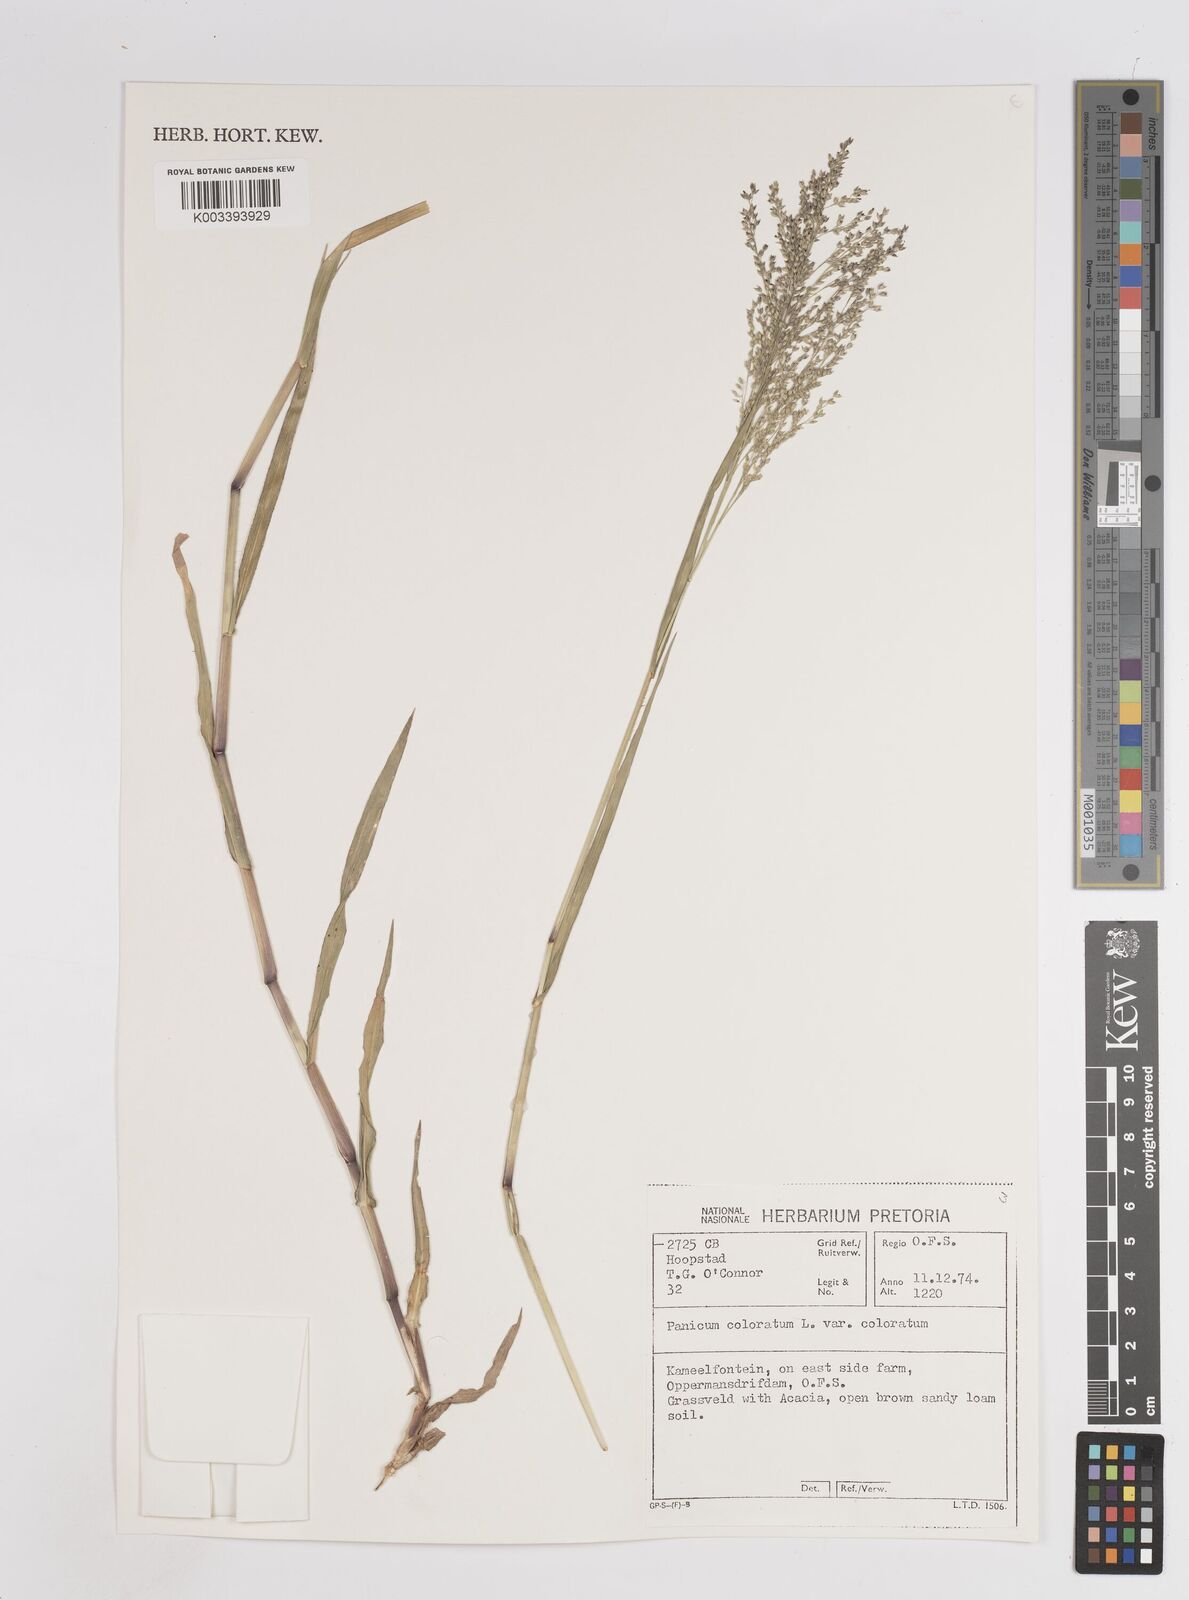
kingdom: Plantae
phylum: Tracheophyta
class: Liliopsida
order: Poales
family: Poaceae
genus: Panicum
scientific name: Panicum coloratum
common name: Kleingrass
